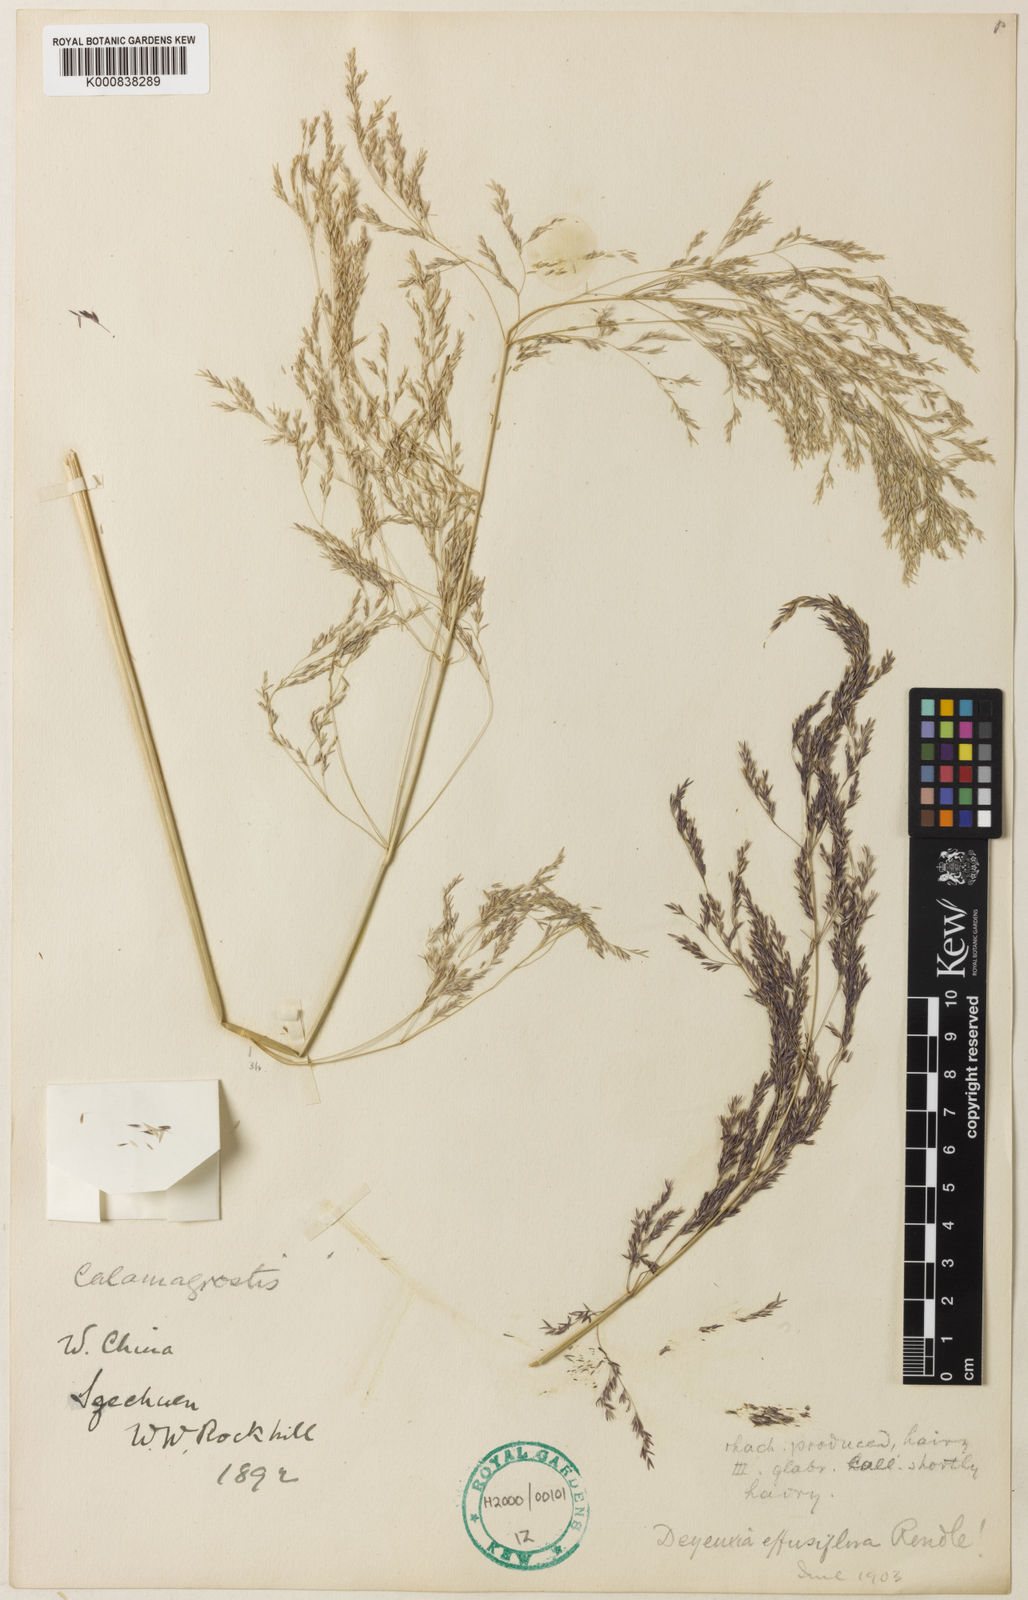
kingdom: Plantae
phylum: Tracheophyta
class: Liliopsida
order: Poales
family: Poaceae
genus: Calamagrostis
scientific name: Calamagrostis effusiflora
